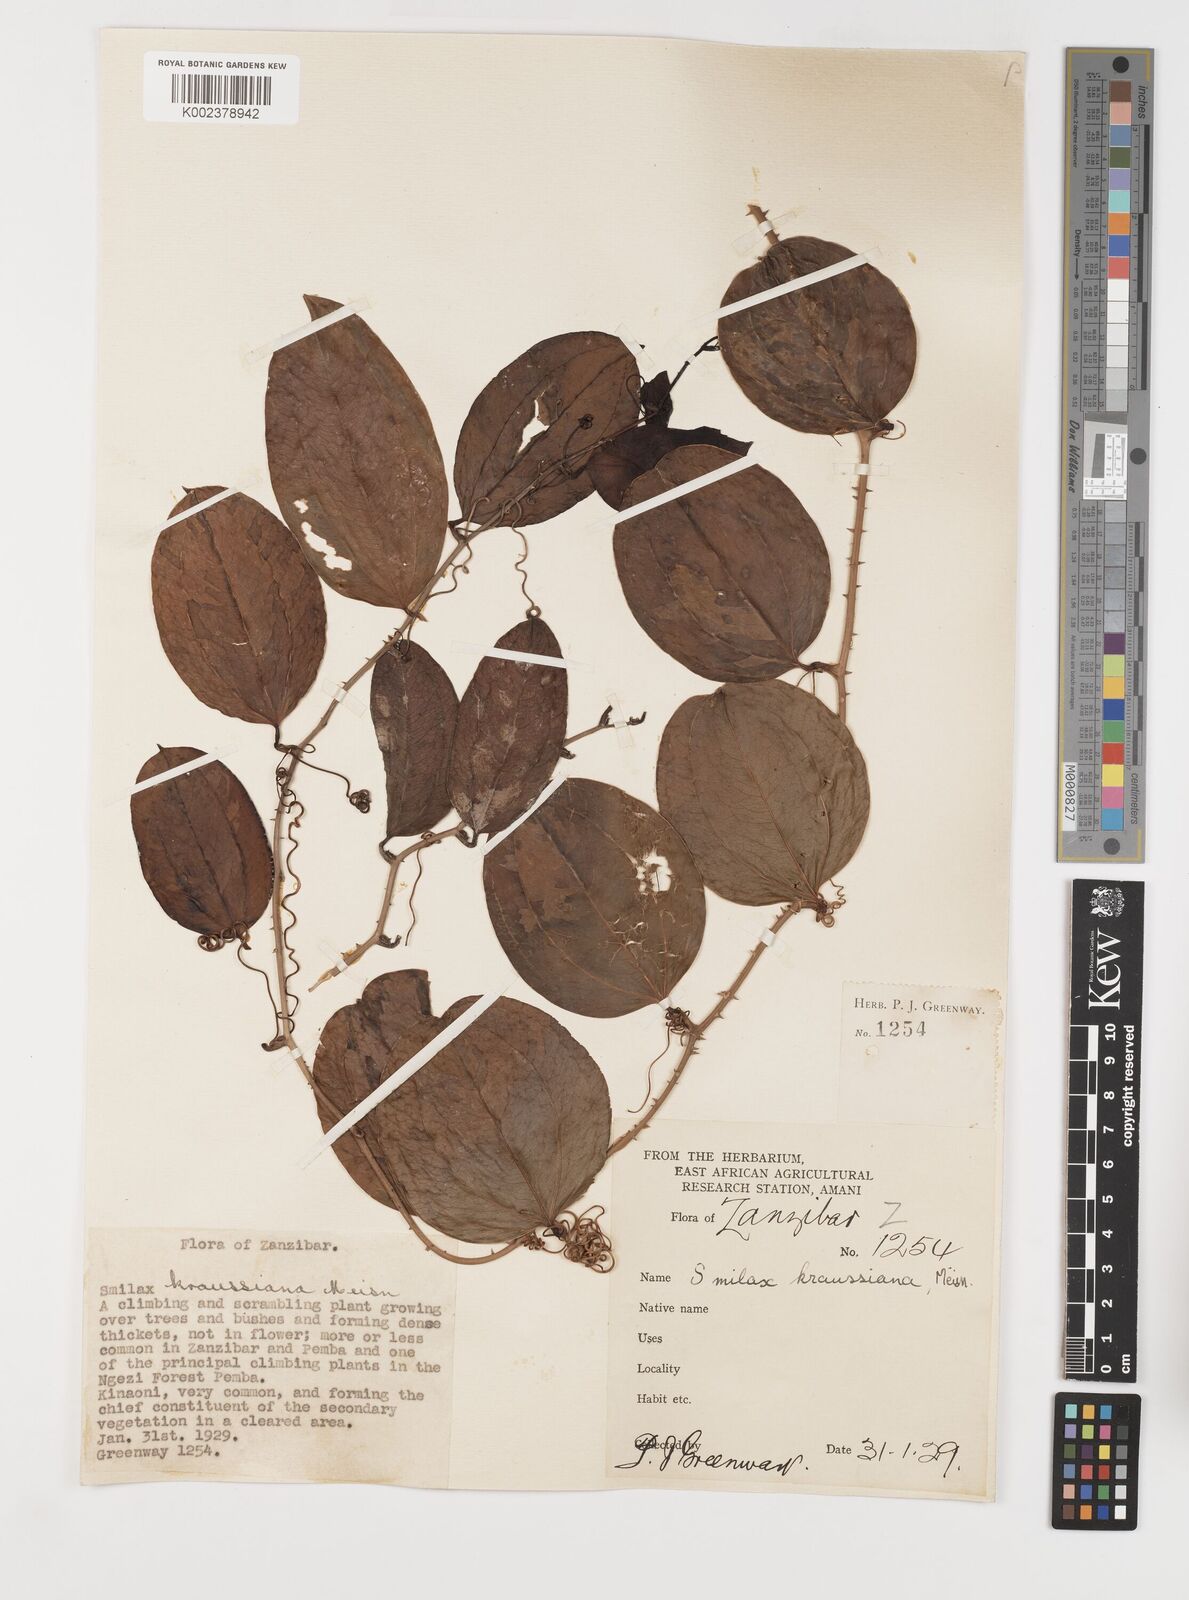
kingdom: Plantae
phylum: Tracheophyta
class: Liliopsida
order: Liliales
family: Smilacaceae
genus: Smilax
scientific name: Smilax anceps
